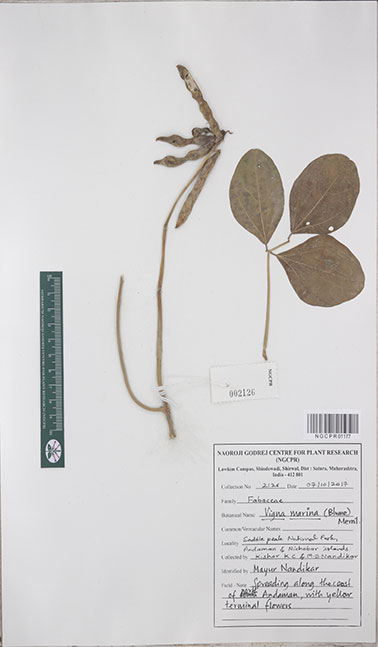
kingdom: Plantae
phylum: Tracheophyta
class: Magnoliopsida
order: Fabales
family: Fabaceae
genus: Vigna
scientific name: Vigna marina
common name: Dune-bean
